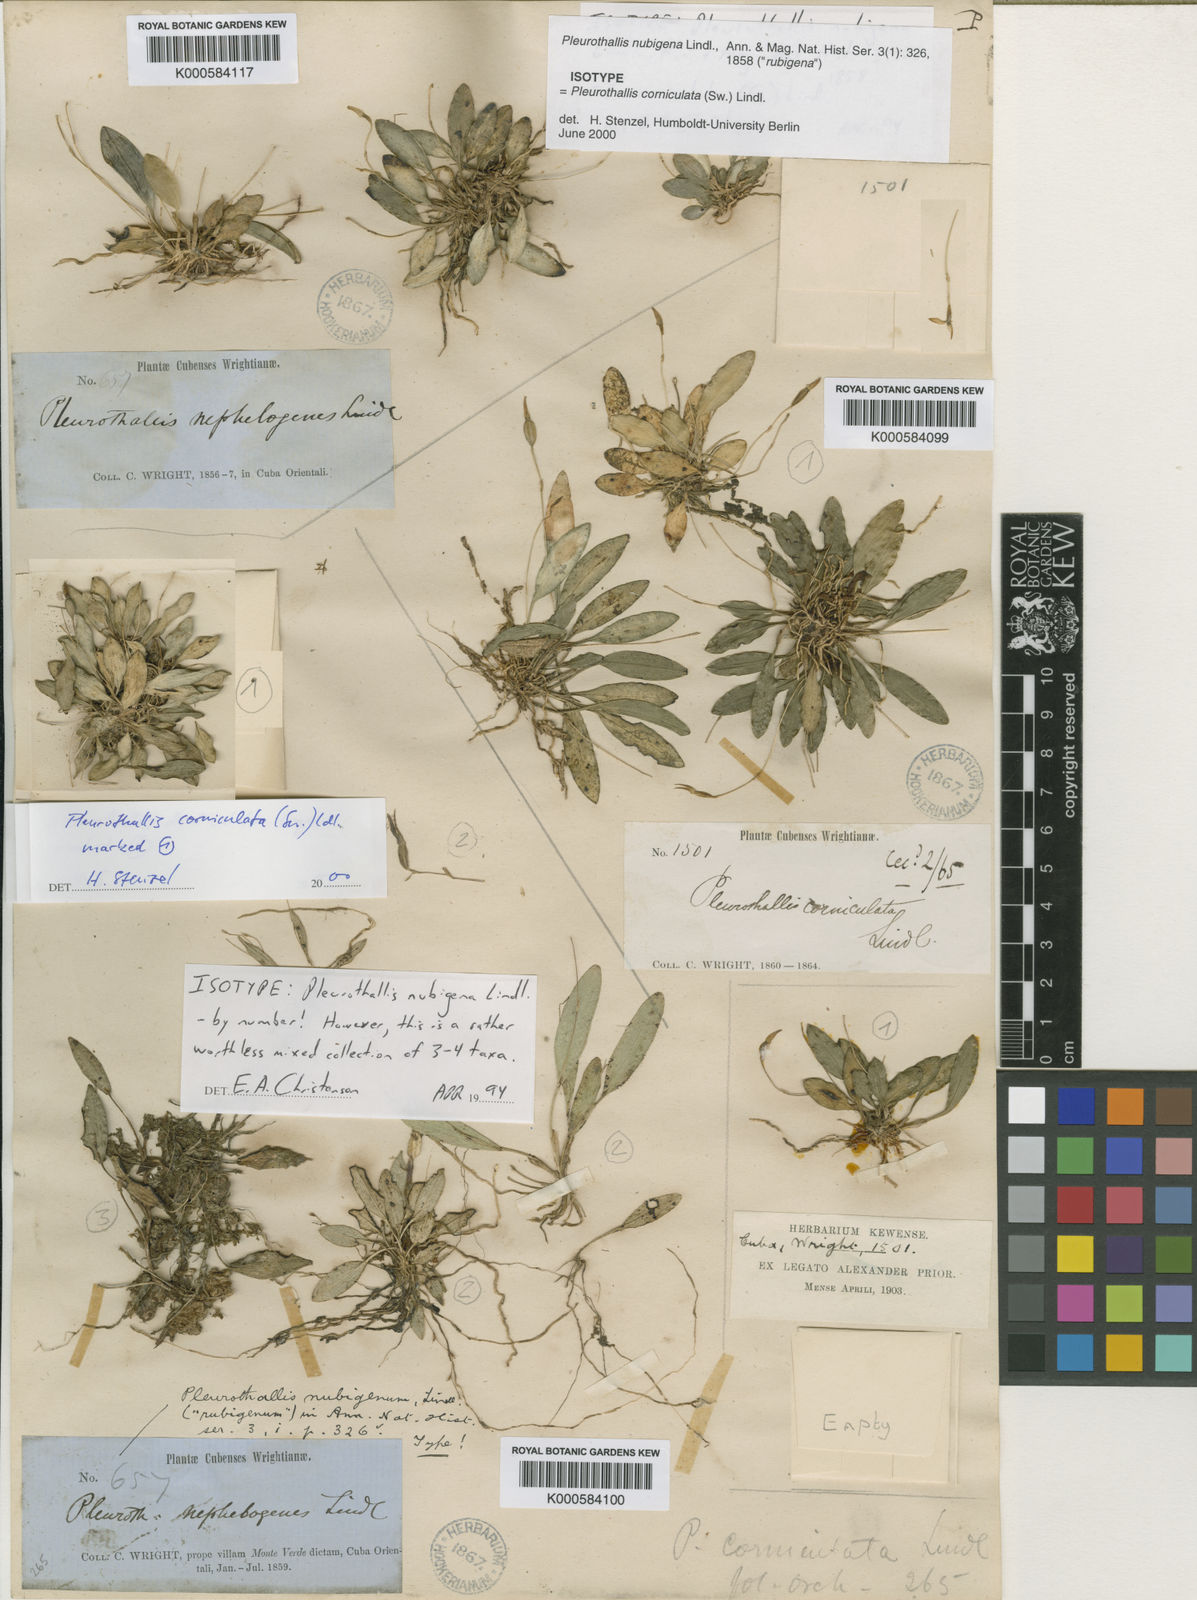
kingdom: Plantae
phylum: Tracheophyta
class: Liliopsida
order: Asparagales
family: Orchidaceae
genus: Specklinia
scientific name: Specklinia corniculata
